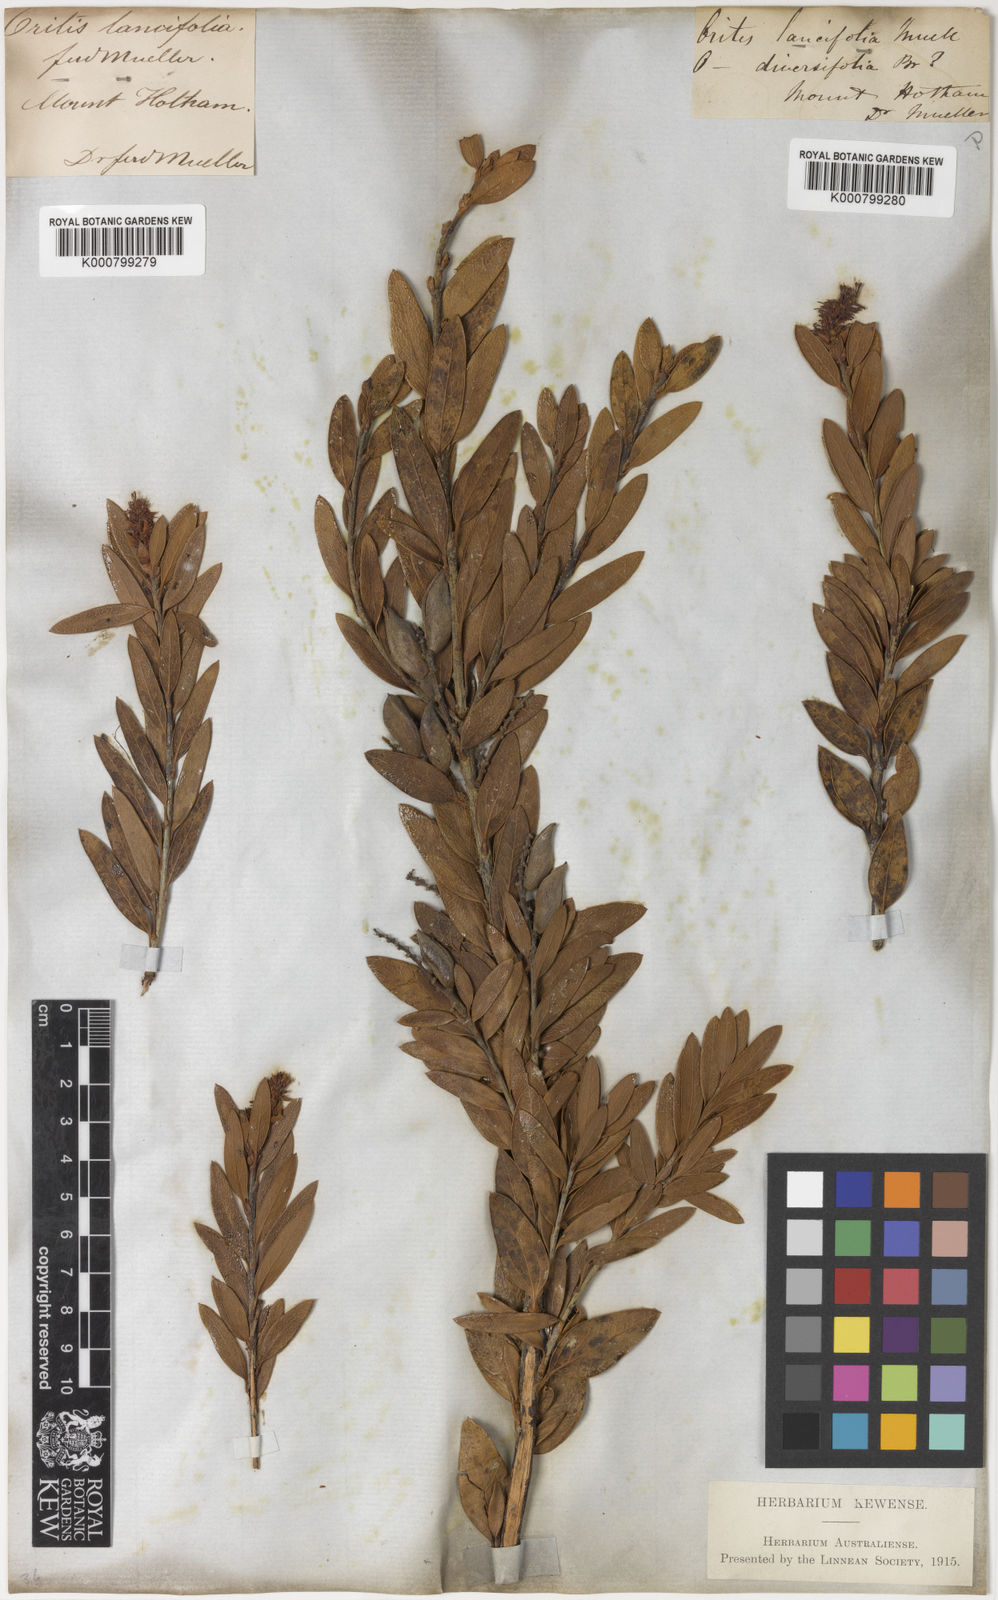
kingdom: Plantae
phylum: Tracheophyta
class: Magnoliopsida
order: Proteales
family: Proteaceae
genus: Orites
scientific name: Orites lancifolius
